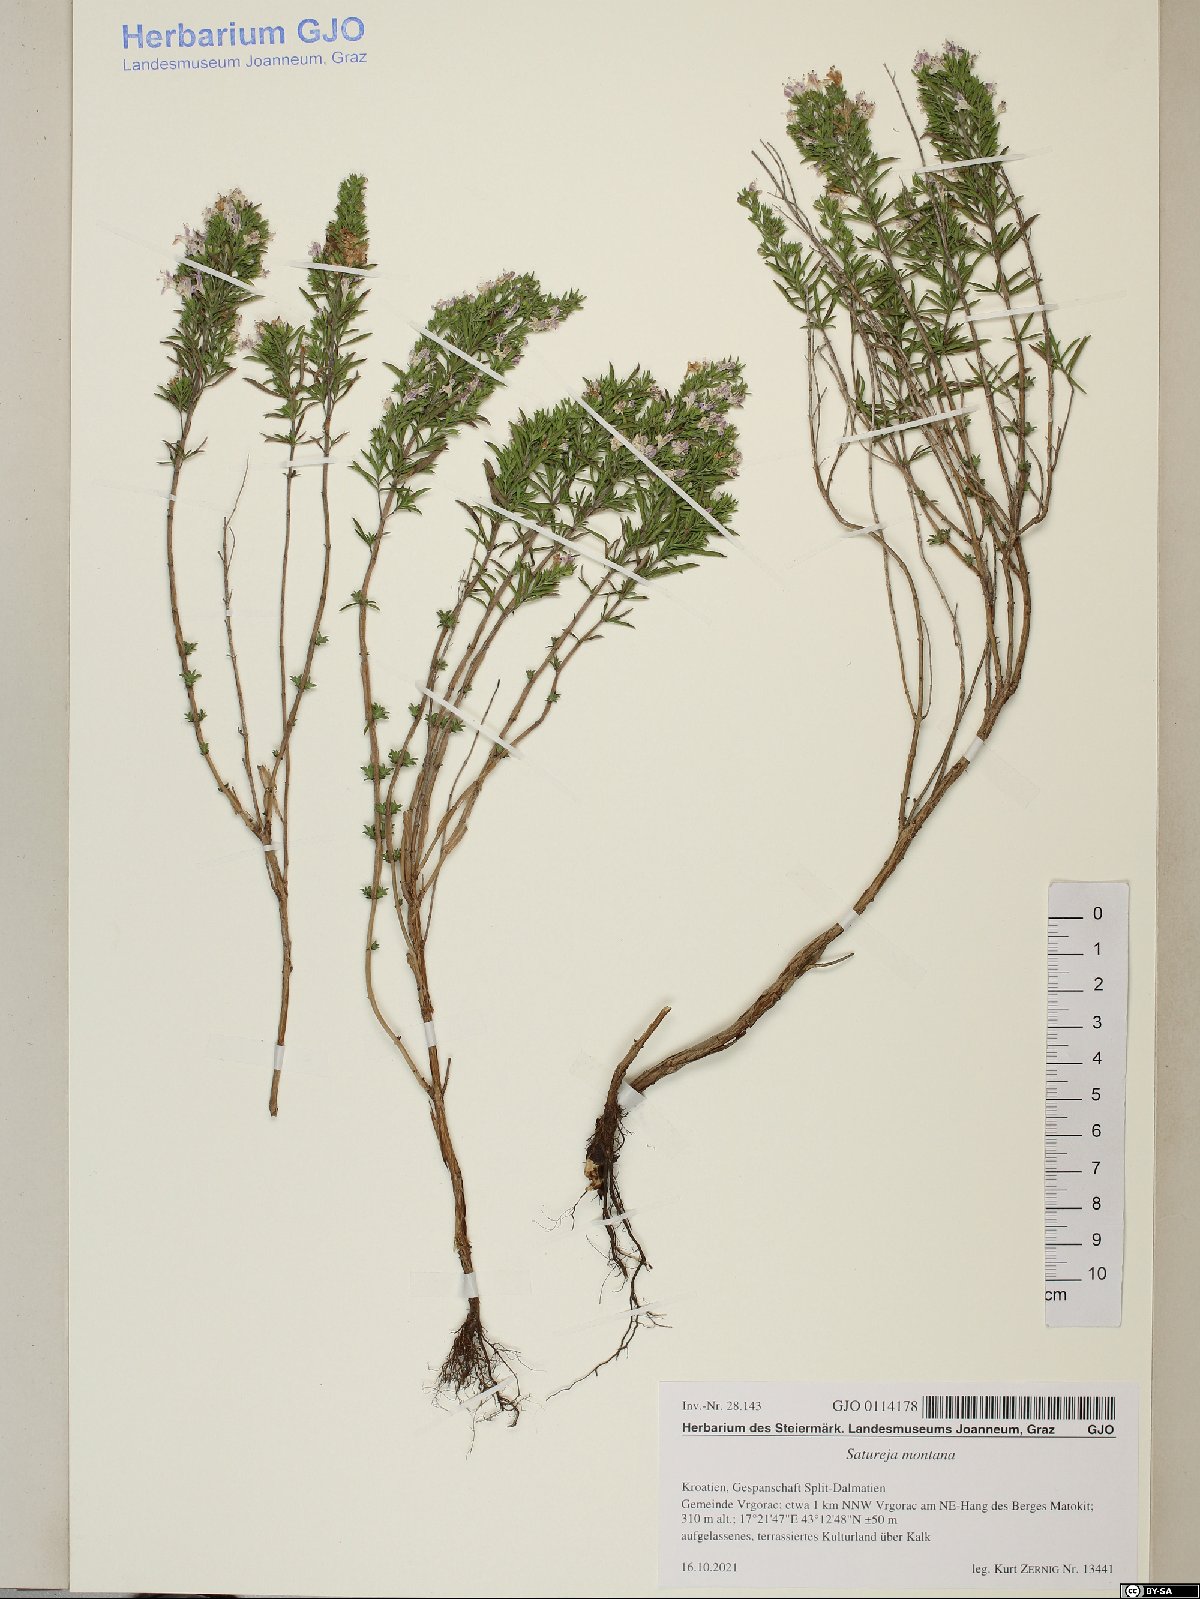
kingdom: Plantae
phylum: Tracheophyta
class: Magnoliopsida
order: Lamiales
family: Lamiaceae
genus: Satureja
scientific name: Satureja montana
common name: Winter savory
